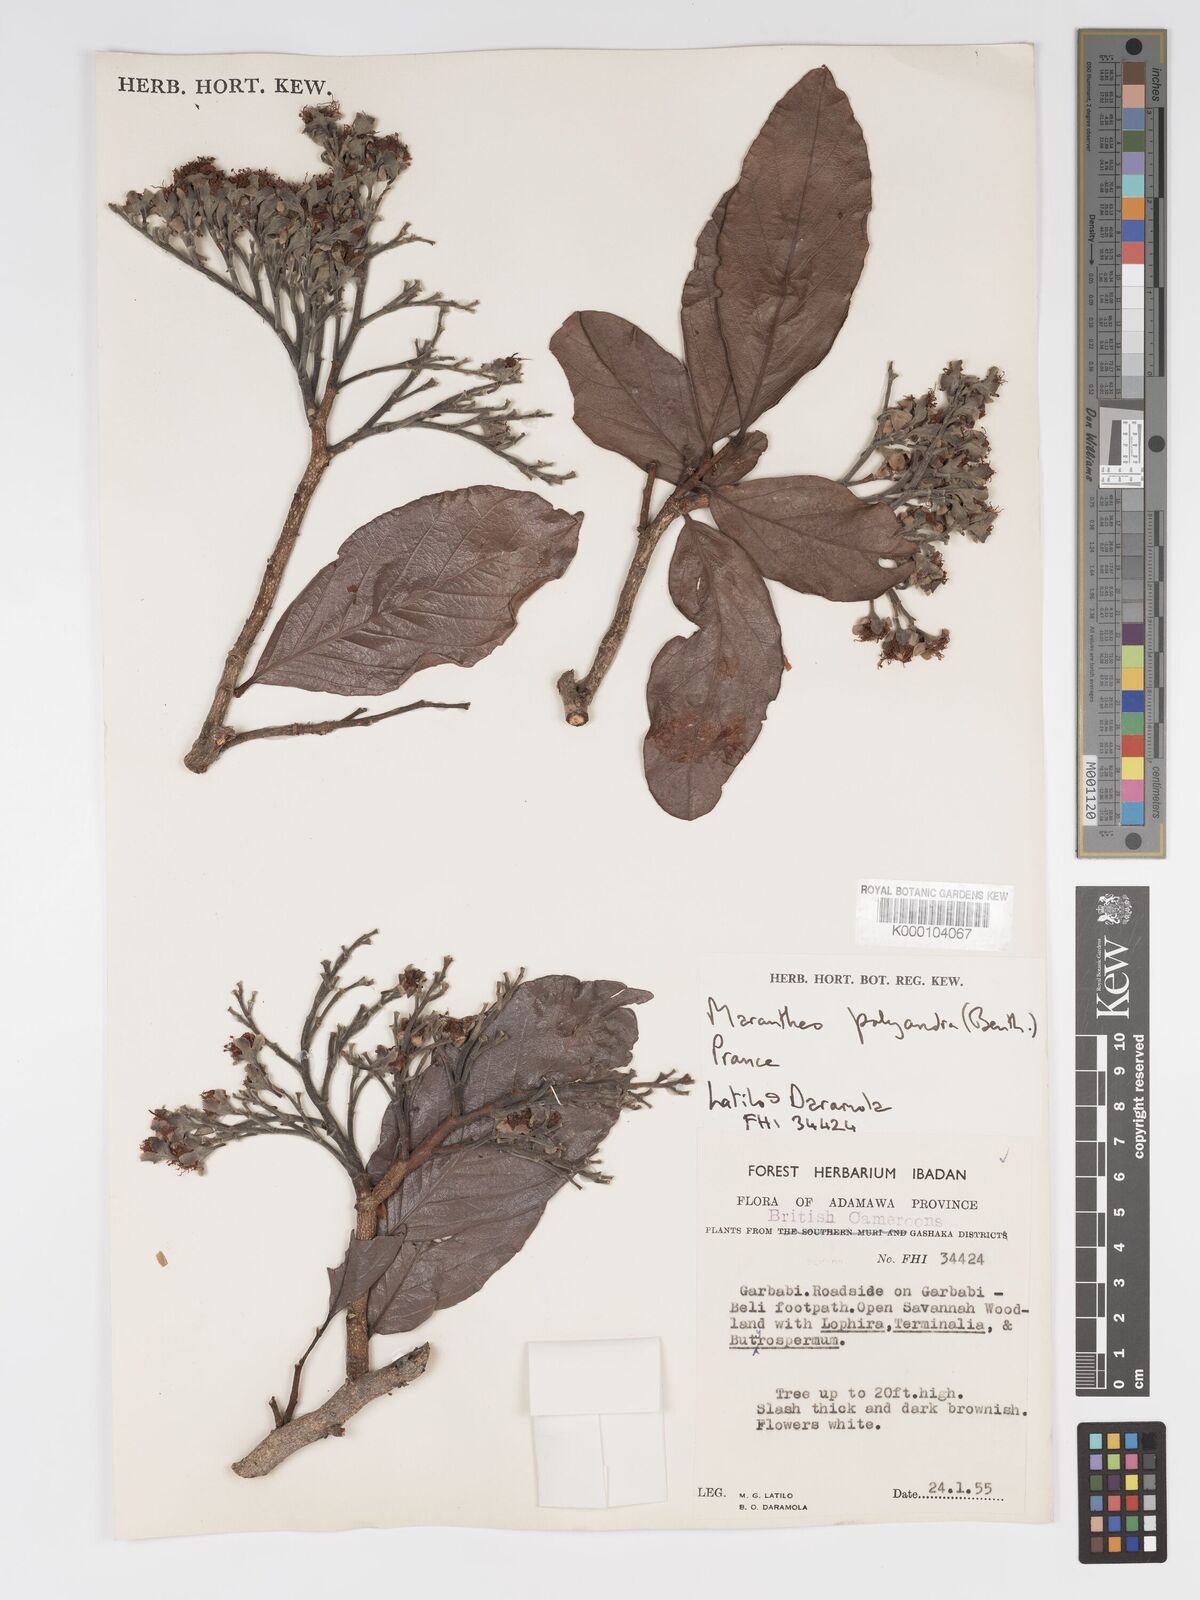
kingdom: Plantae
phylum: Tracheophyta
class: Magnoliopsida
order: Malpighiales
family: Chrysobalanaceae
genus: Maranthes
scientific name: Maranthes polyandra
